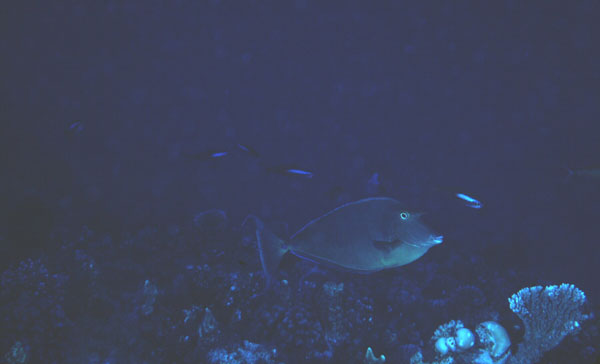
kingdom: Animalia
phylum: Chordata
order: Perciformes
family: Acanthuridae
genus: Naso
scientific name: Naso unicornis
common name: Bluespine unicornfish
